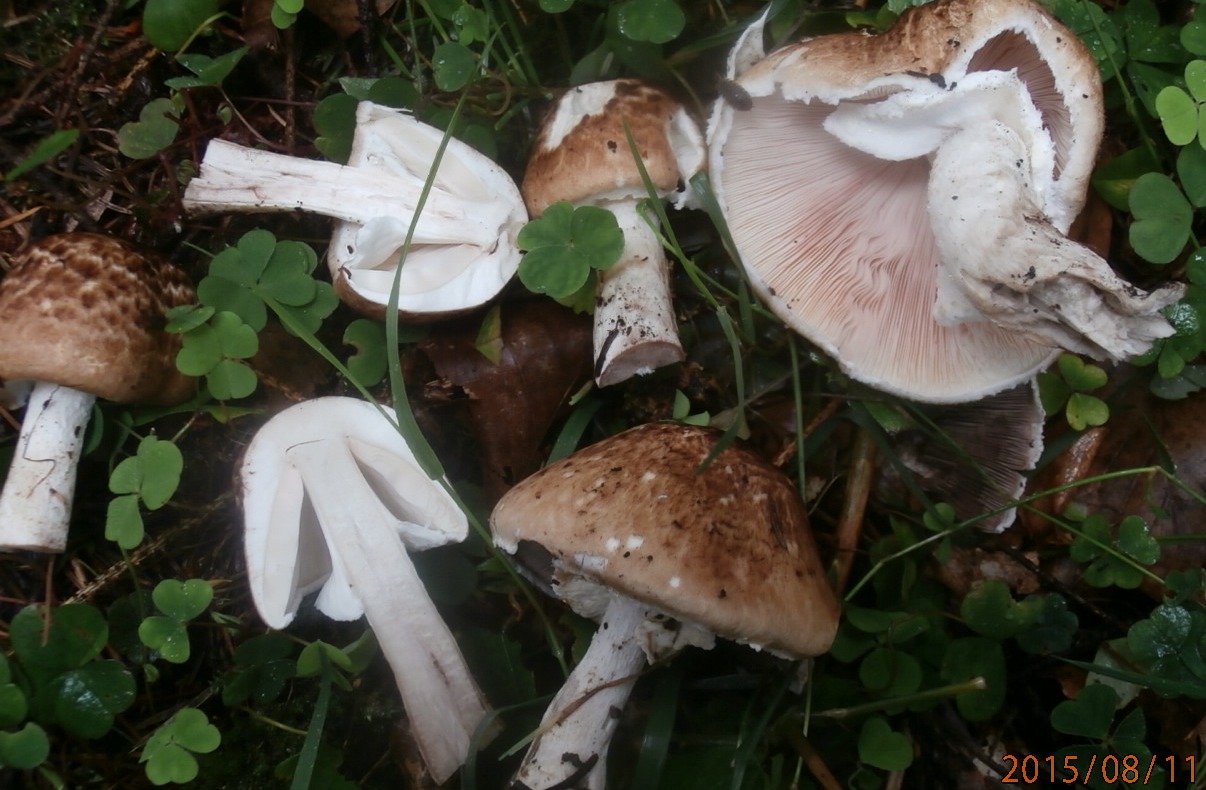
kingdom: Fungi
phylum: Basidiomycota
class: Agaricomycetes
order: Agaricales
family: Agaricaceae
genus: Agaricus
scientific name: Agaricus impudicus
